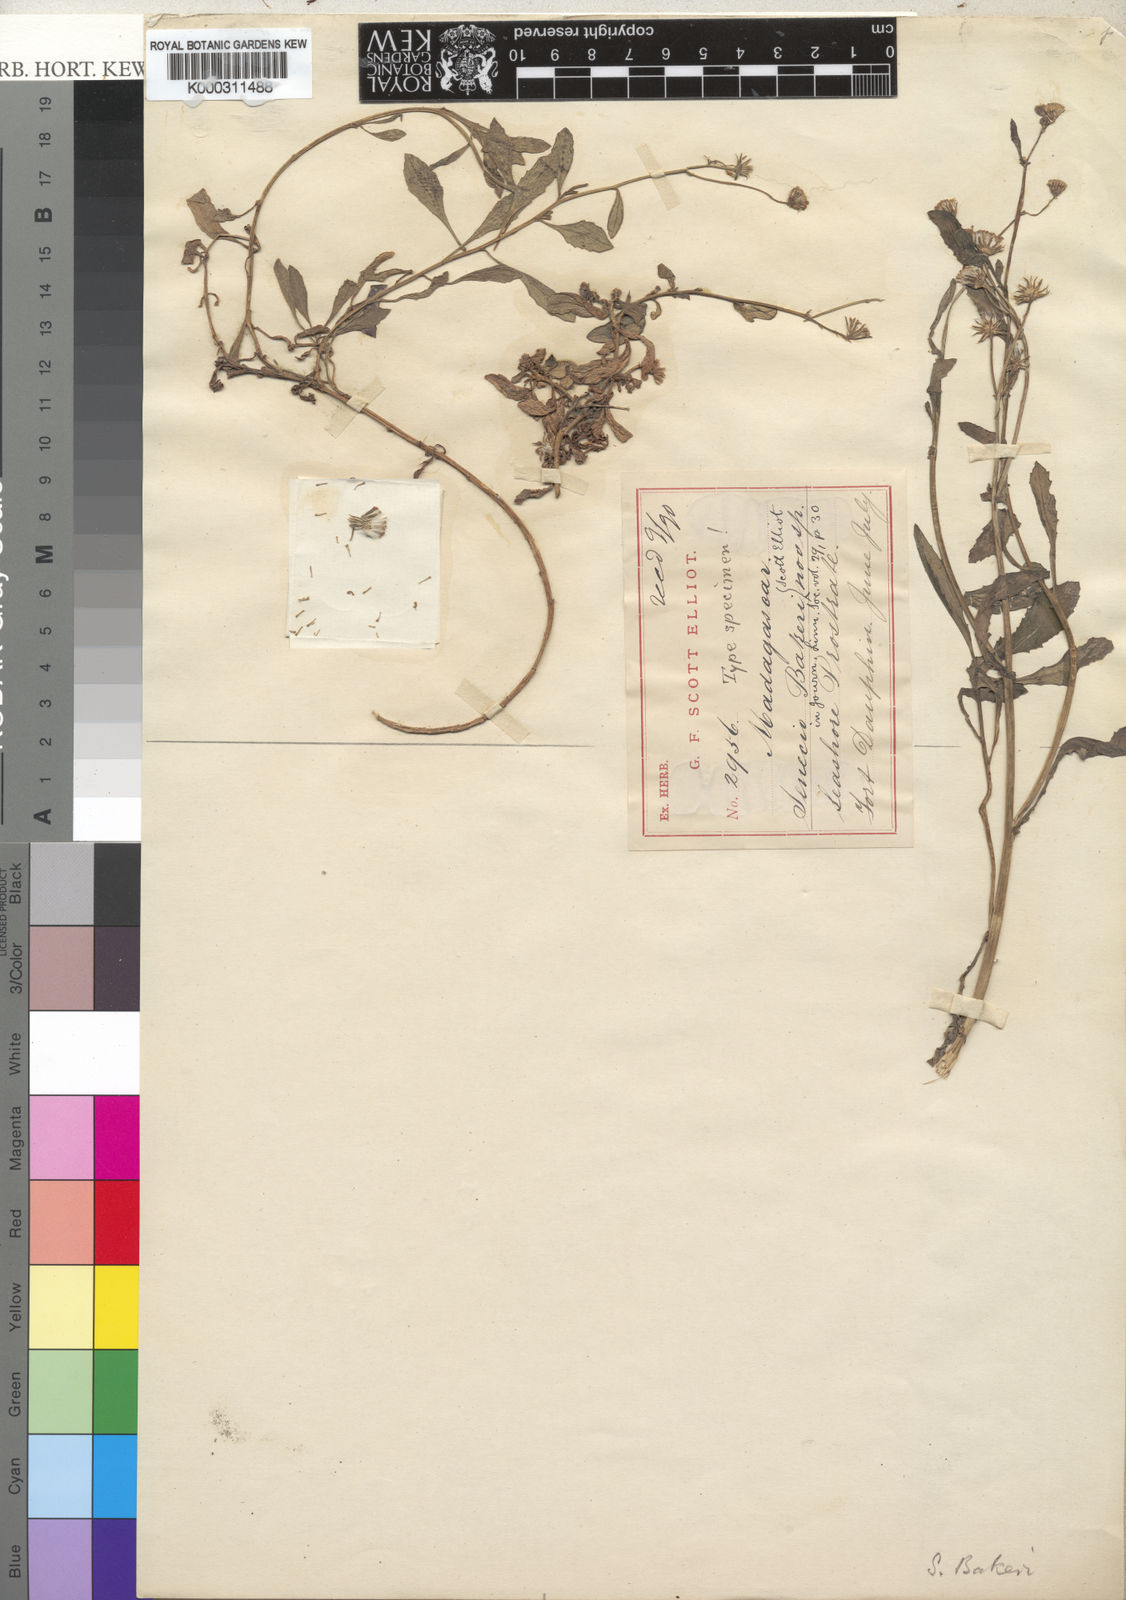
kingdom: Plantae
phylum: Tracheophyta
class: Magnoliopsida
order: Asterales
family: Asteraceae
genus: Kleinia
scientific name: Kleinia madagascariensis
